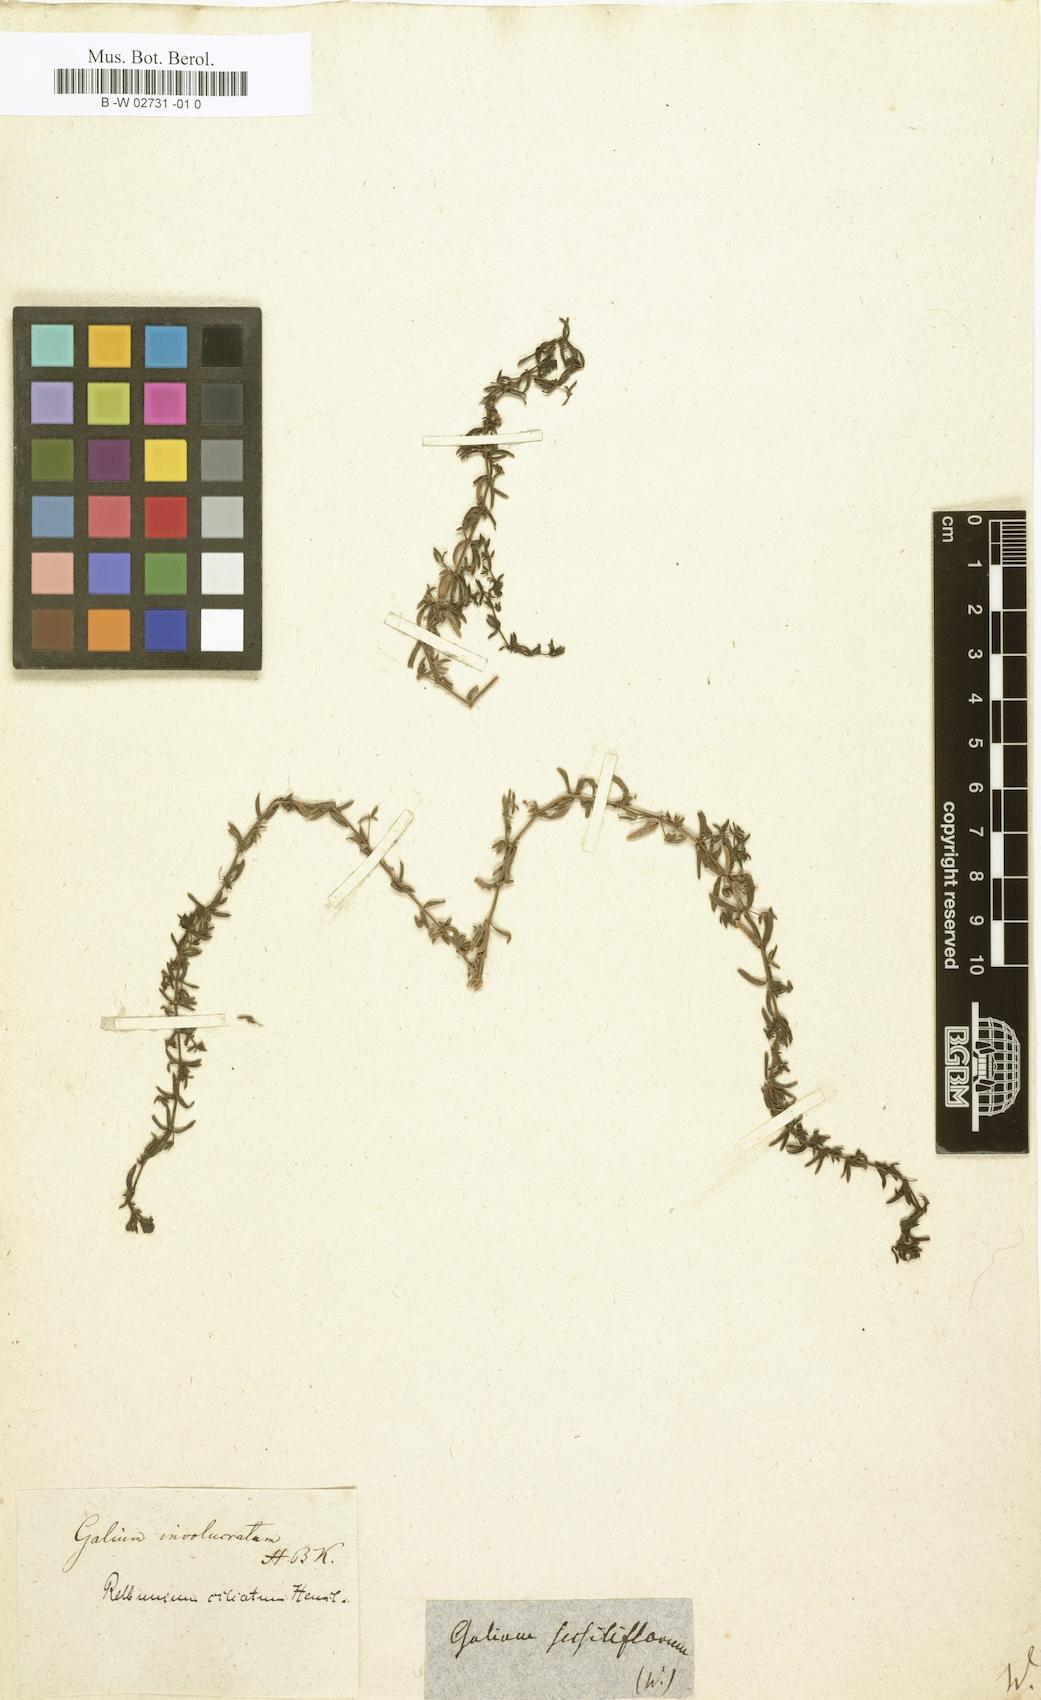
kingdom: Plantae
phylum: Tracheophyta
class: Magnoliopsida
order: Gentianales
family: Rubiaceae
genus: Galium
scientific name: Galium corymbosum
